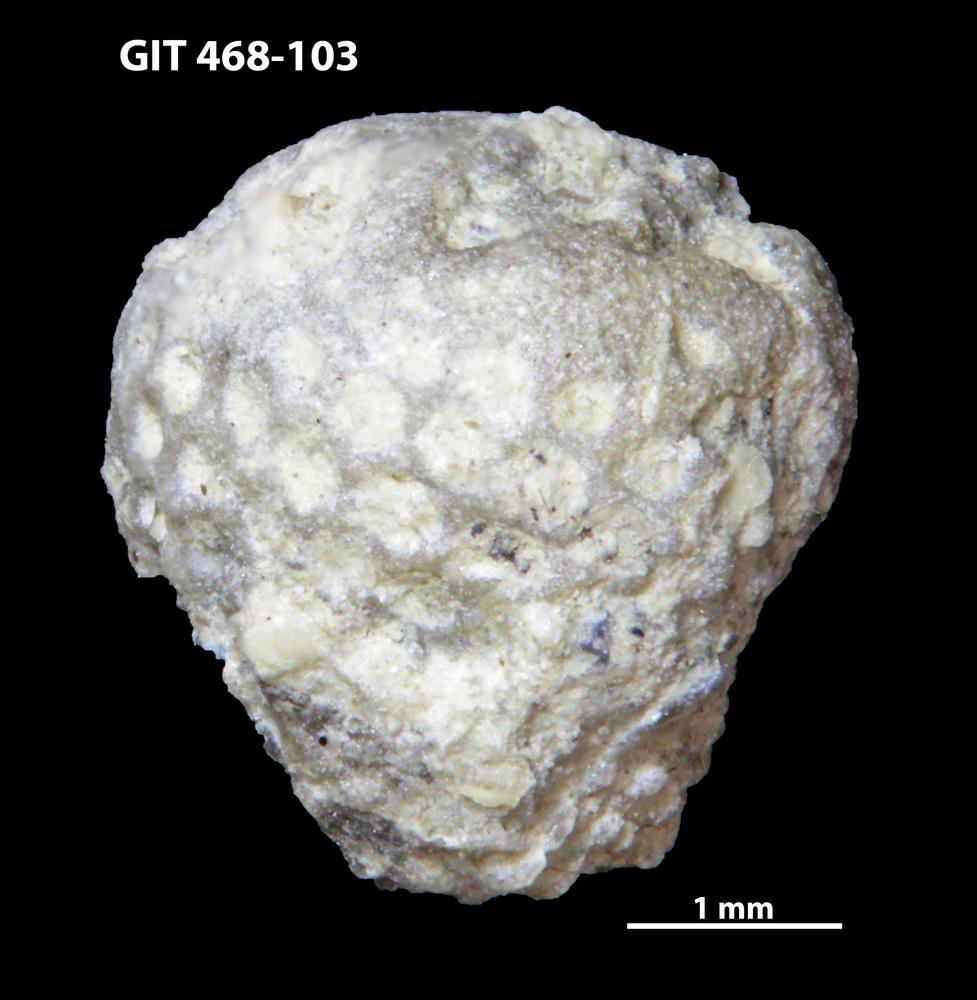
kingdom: Animalia
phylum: Echinodermata
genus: Bolboporites
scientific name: Bolboporites
